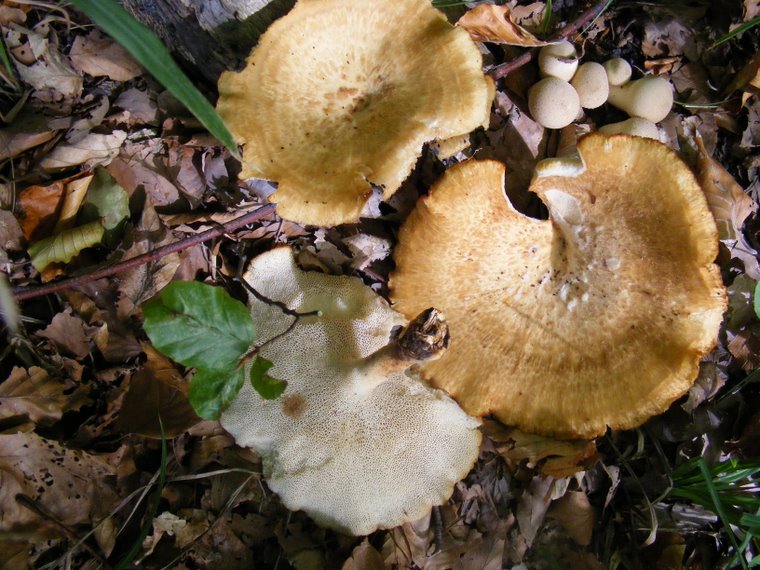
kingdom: Fungi
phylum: Basidiomycota
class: Agaricomycetes
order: Polyporales
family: Polyporaceae
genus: Polyporus
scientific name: Polyporus tuberaster
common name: knoldet stilkporesvamp
